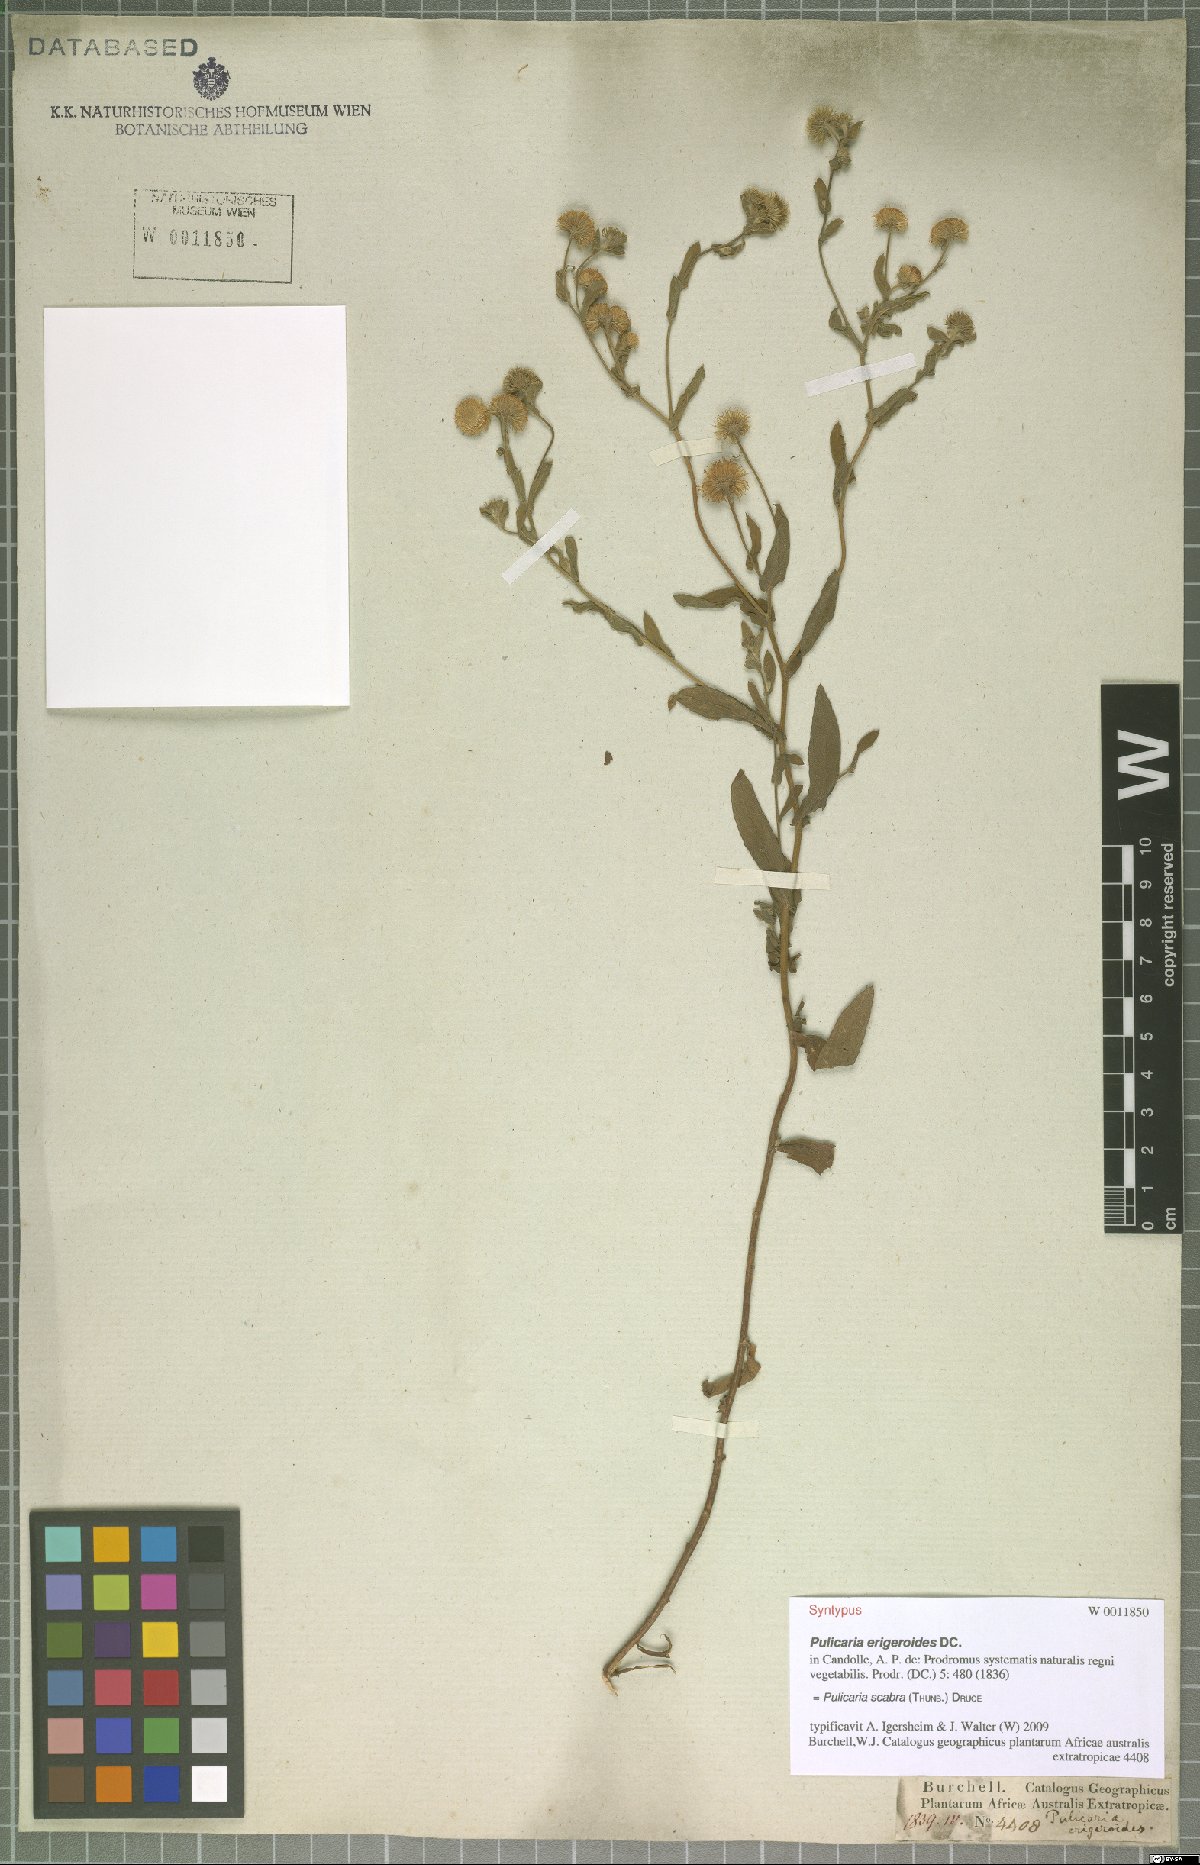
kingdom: Plantae
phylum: Tracheophyta
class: Magnoliopsida
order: Asterales
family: Asteraceae
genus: Pulicaria
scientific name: Pulicaria scabra
